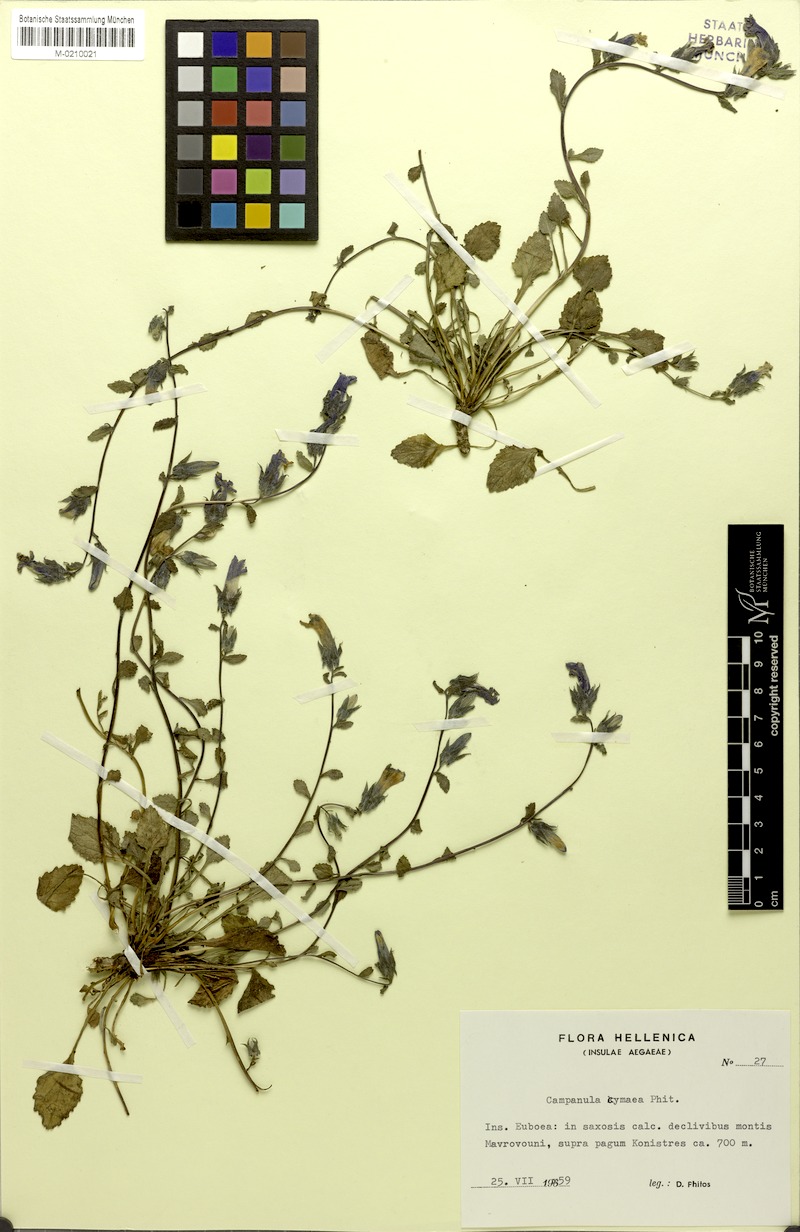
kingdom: Plantae
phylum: Tracheophyta
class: Magnoliopsida
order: Asterales
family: Campanulaceae
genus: Campanula
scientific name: Campanula cymaea
